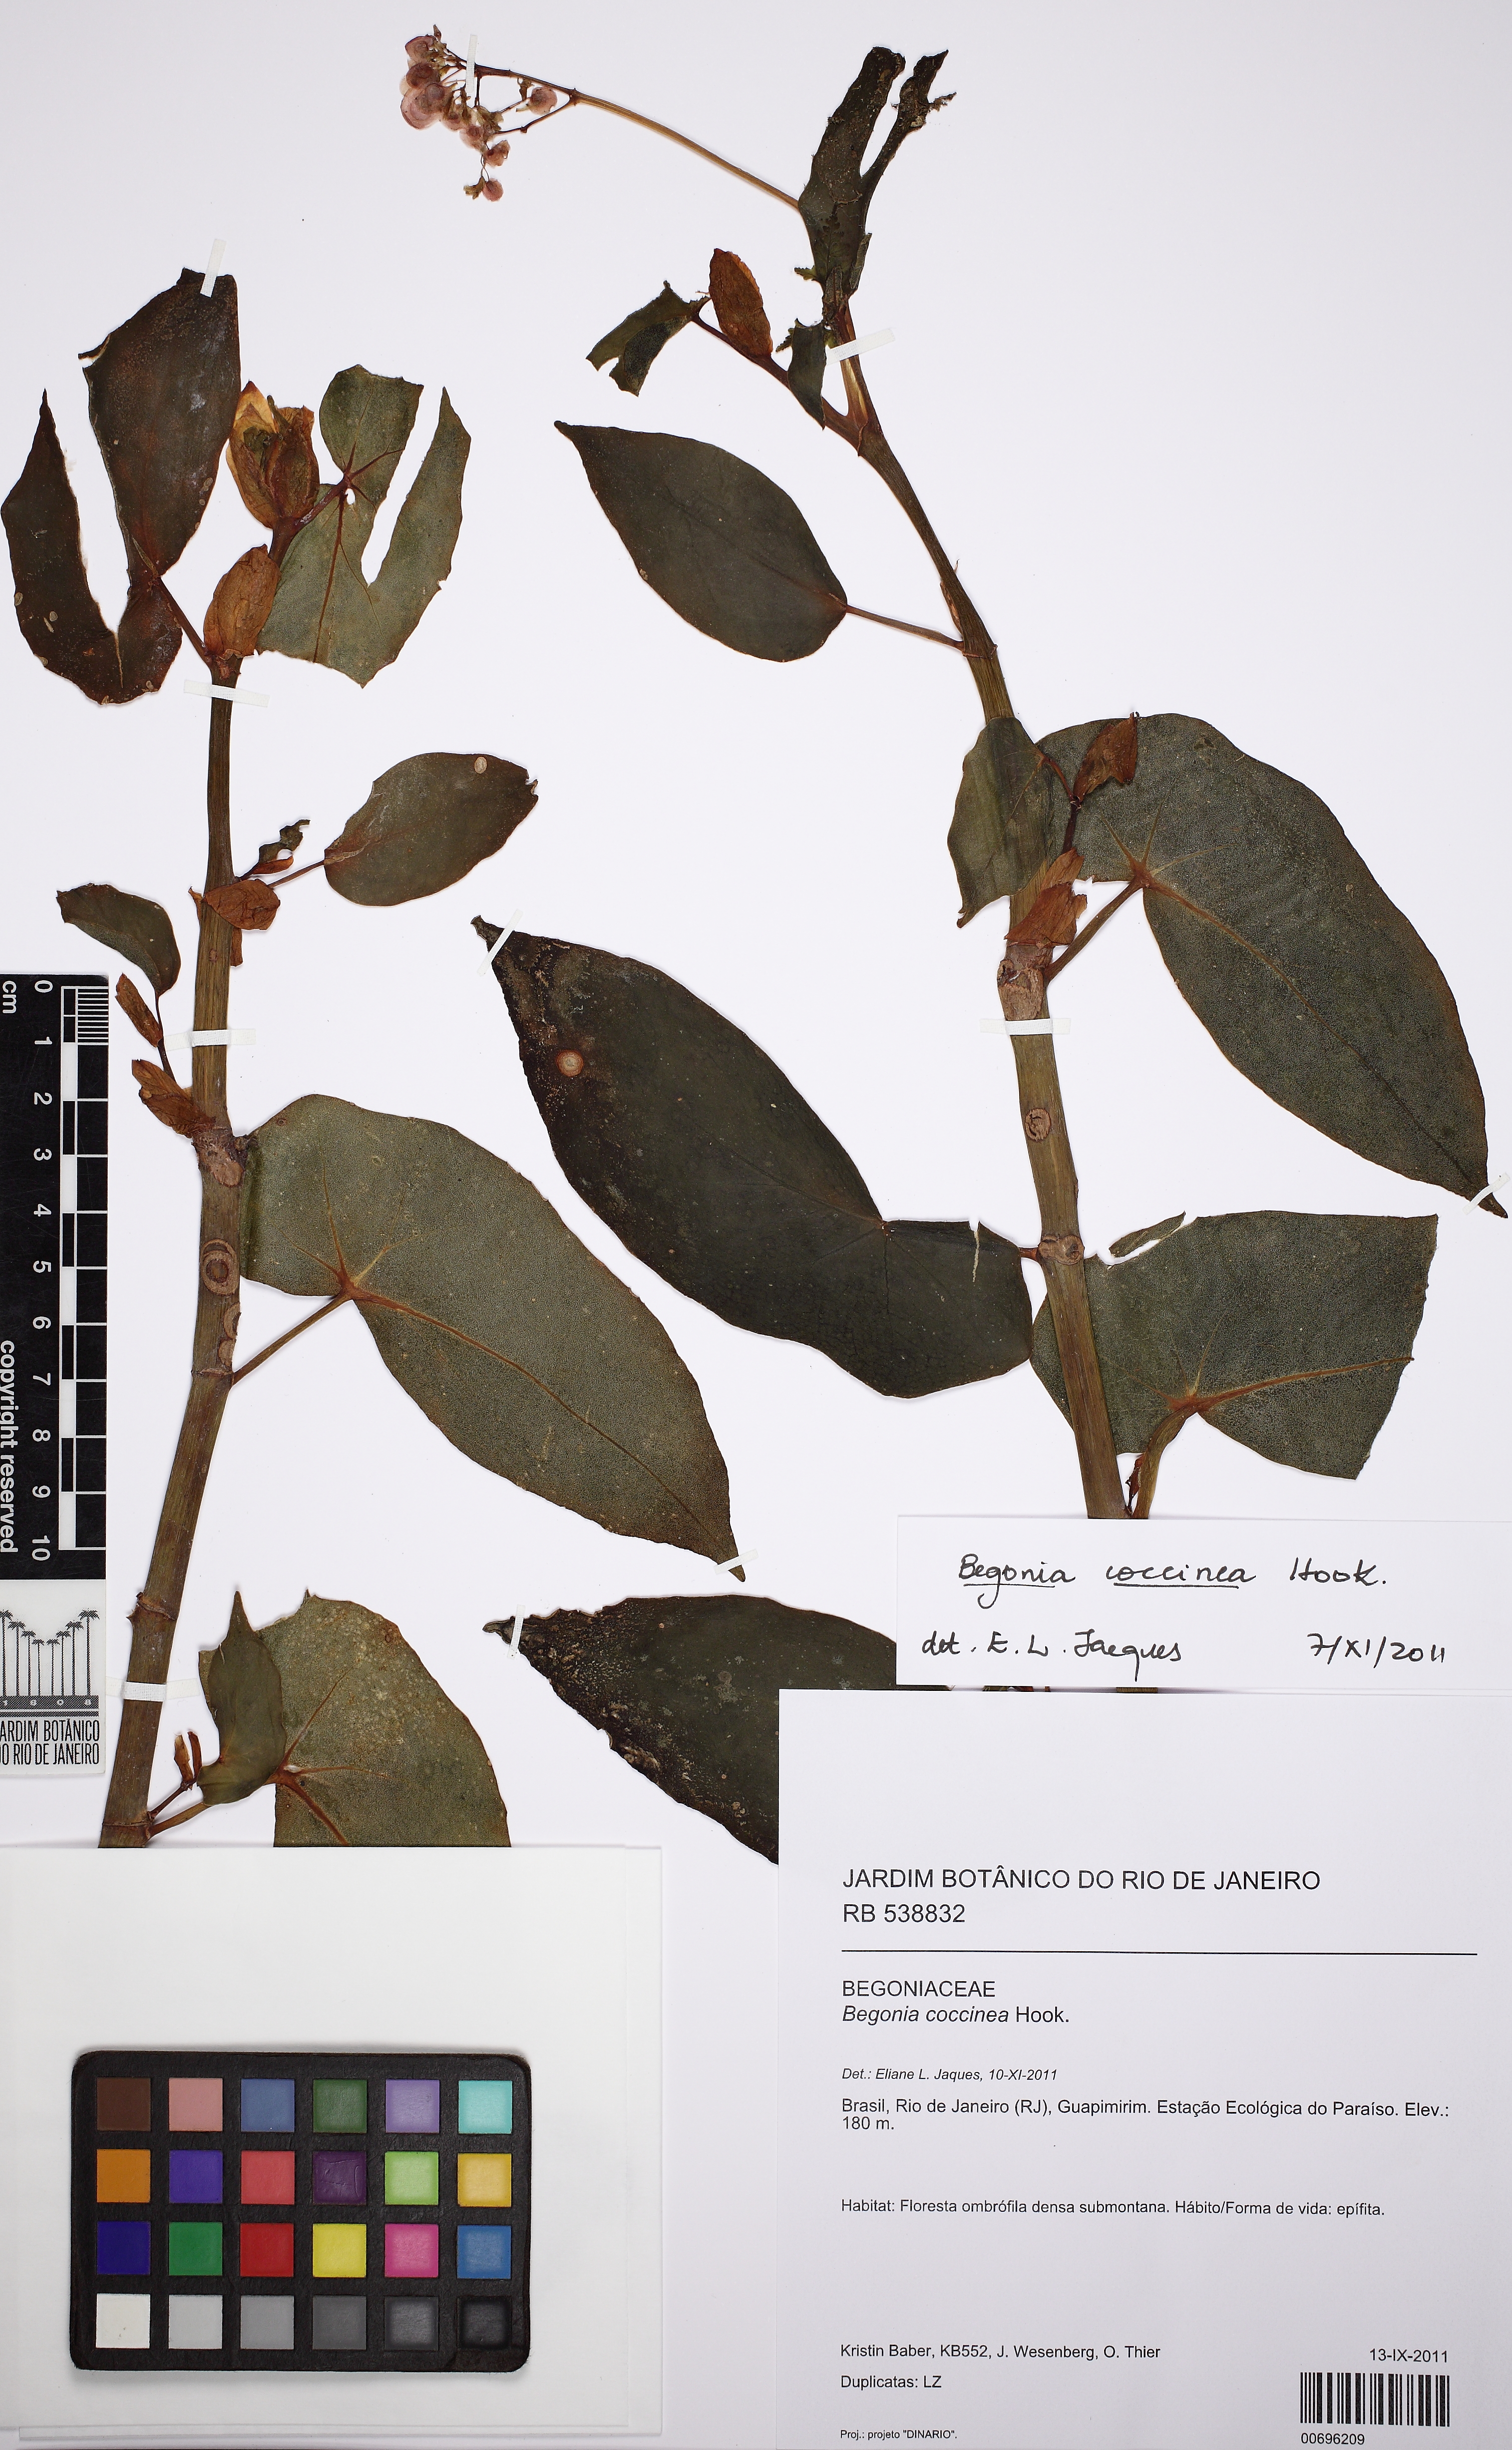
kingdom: Plantae
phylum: Tracheophyta
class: Magnoliopsida
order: Cucurbitales
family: Begoniaceae
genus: Begonia
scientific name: Begonia coccinea
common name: Angel-wing begonia
